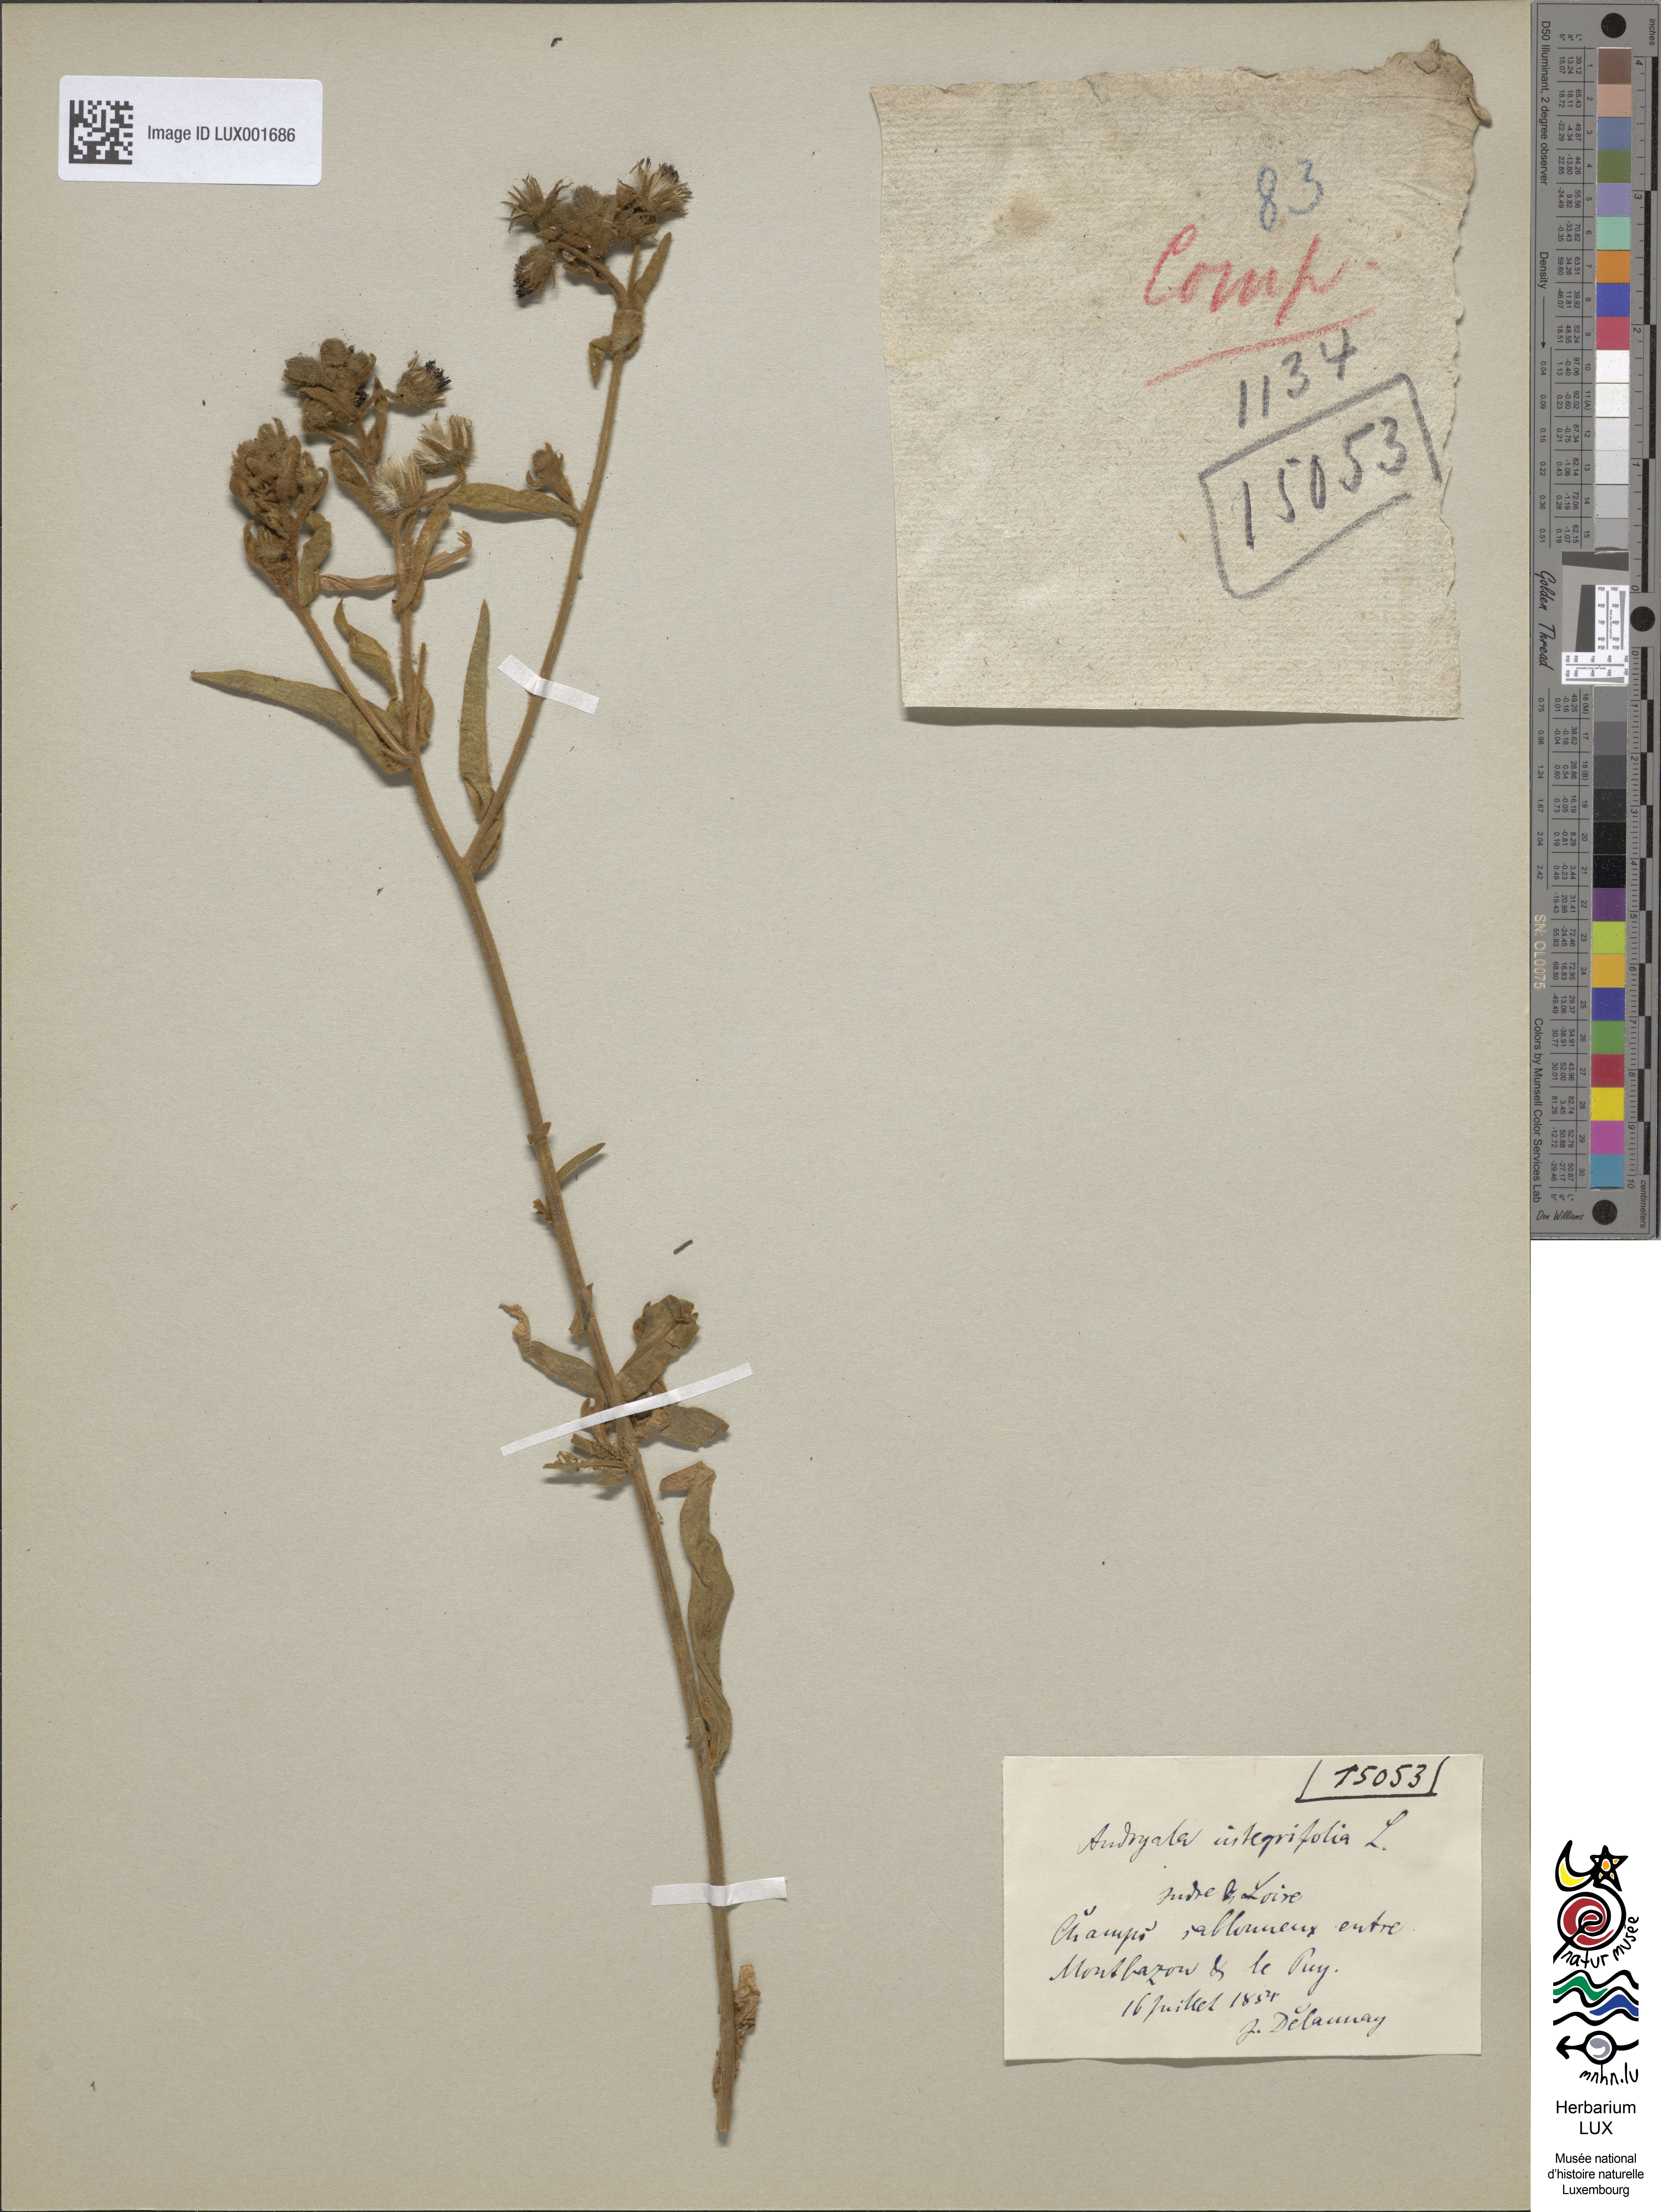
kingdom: Plantae
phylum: Tracheophyta
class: Magnoliopsida
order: Asterales
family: Asteraceae
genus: Andryala
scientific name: Andryala integrifolia
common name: Common andryala
